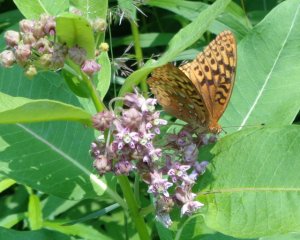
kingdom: Animalia
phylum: Arthropoda
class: Insecta
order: Lepidoptera
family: Nymphalidae
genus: Speyeria
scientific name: Speyeria cybele
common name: Great Spangled Fritillary
